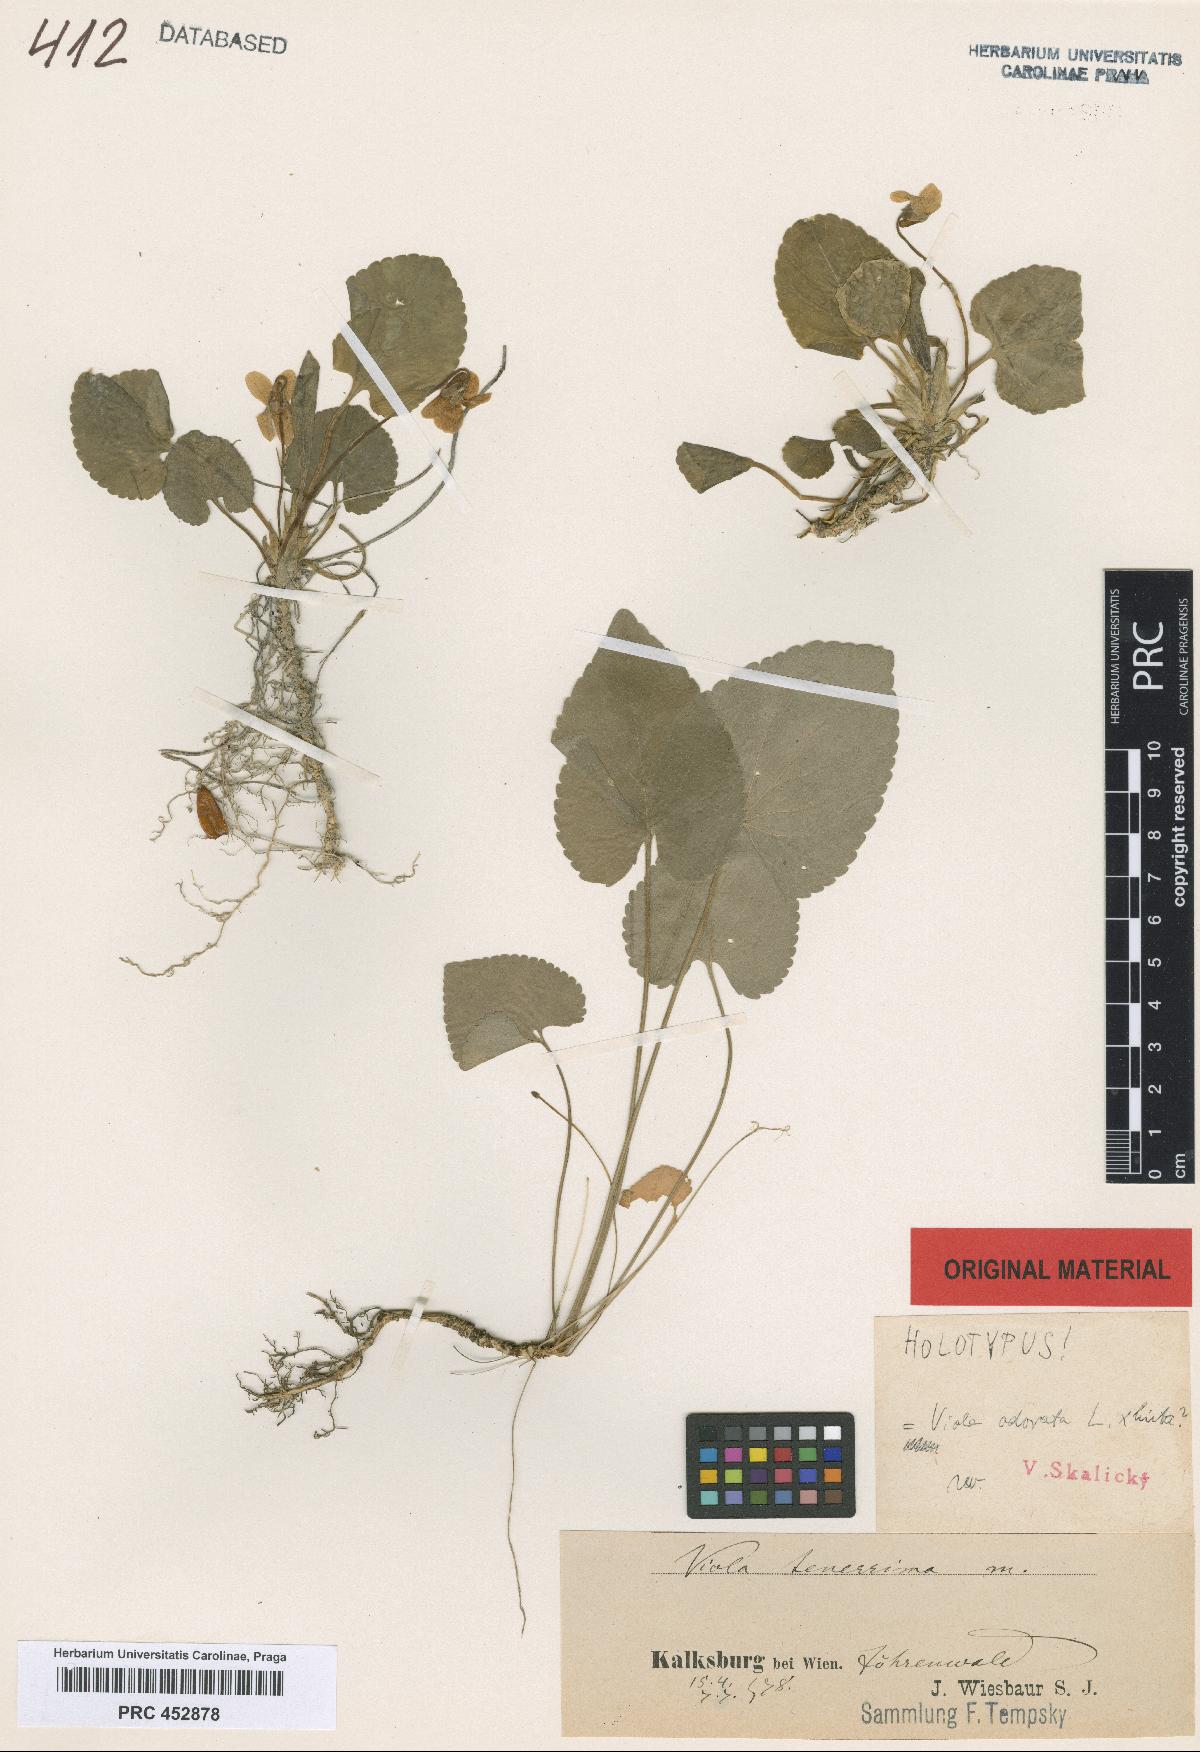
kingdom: Plantae
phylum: Tracheophyta
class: Magnoliopsida
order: Malpighiales
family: Violaceae
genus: Viola
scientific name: Viola hirta
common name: Hairy violet
